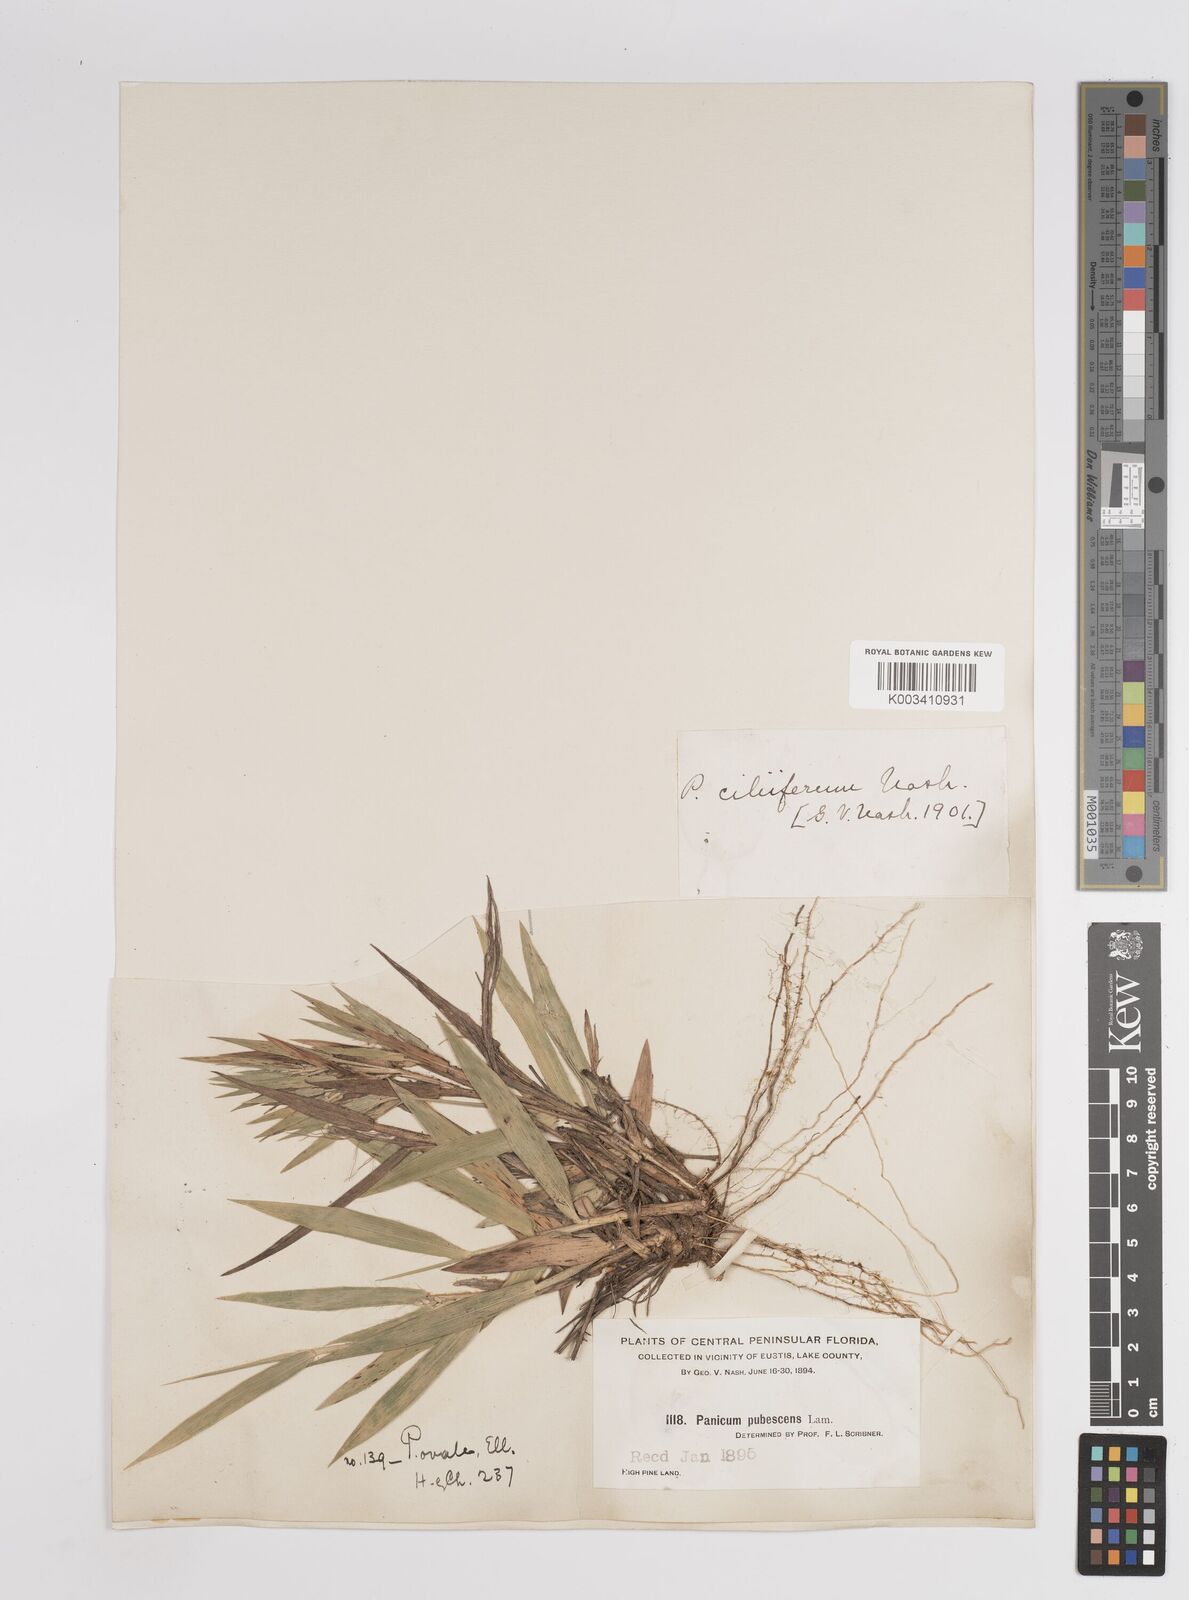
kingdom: Plantae
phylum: Tracheophyta
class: Liliopsida
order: Poales
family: Poaceae
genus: Dichanthelium
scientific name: Dichanthelium ovale
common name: Stiff-leaved panicgrass
